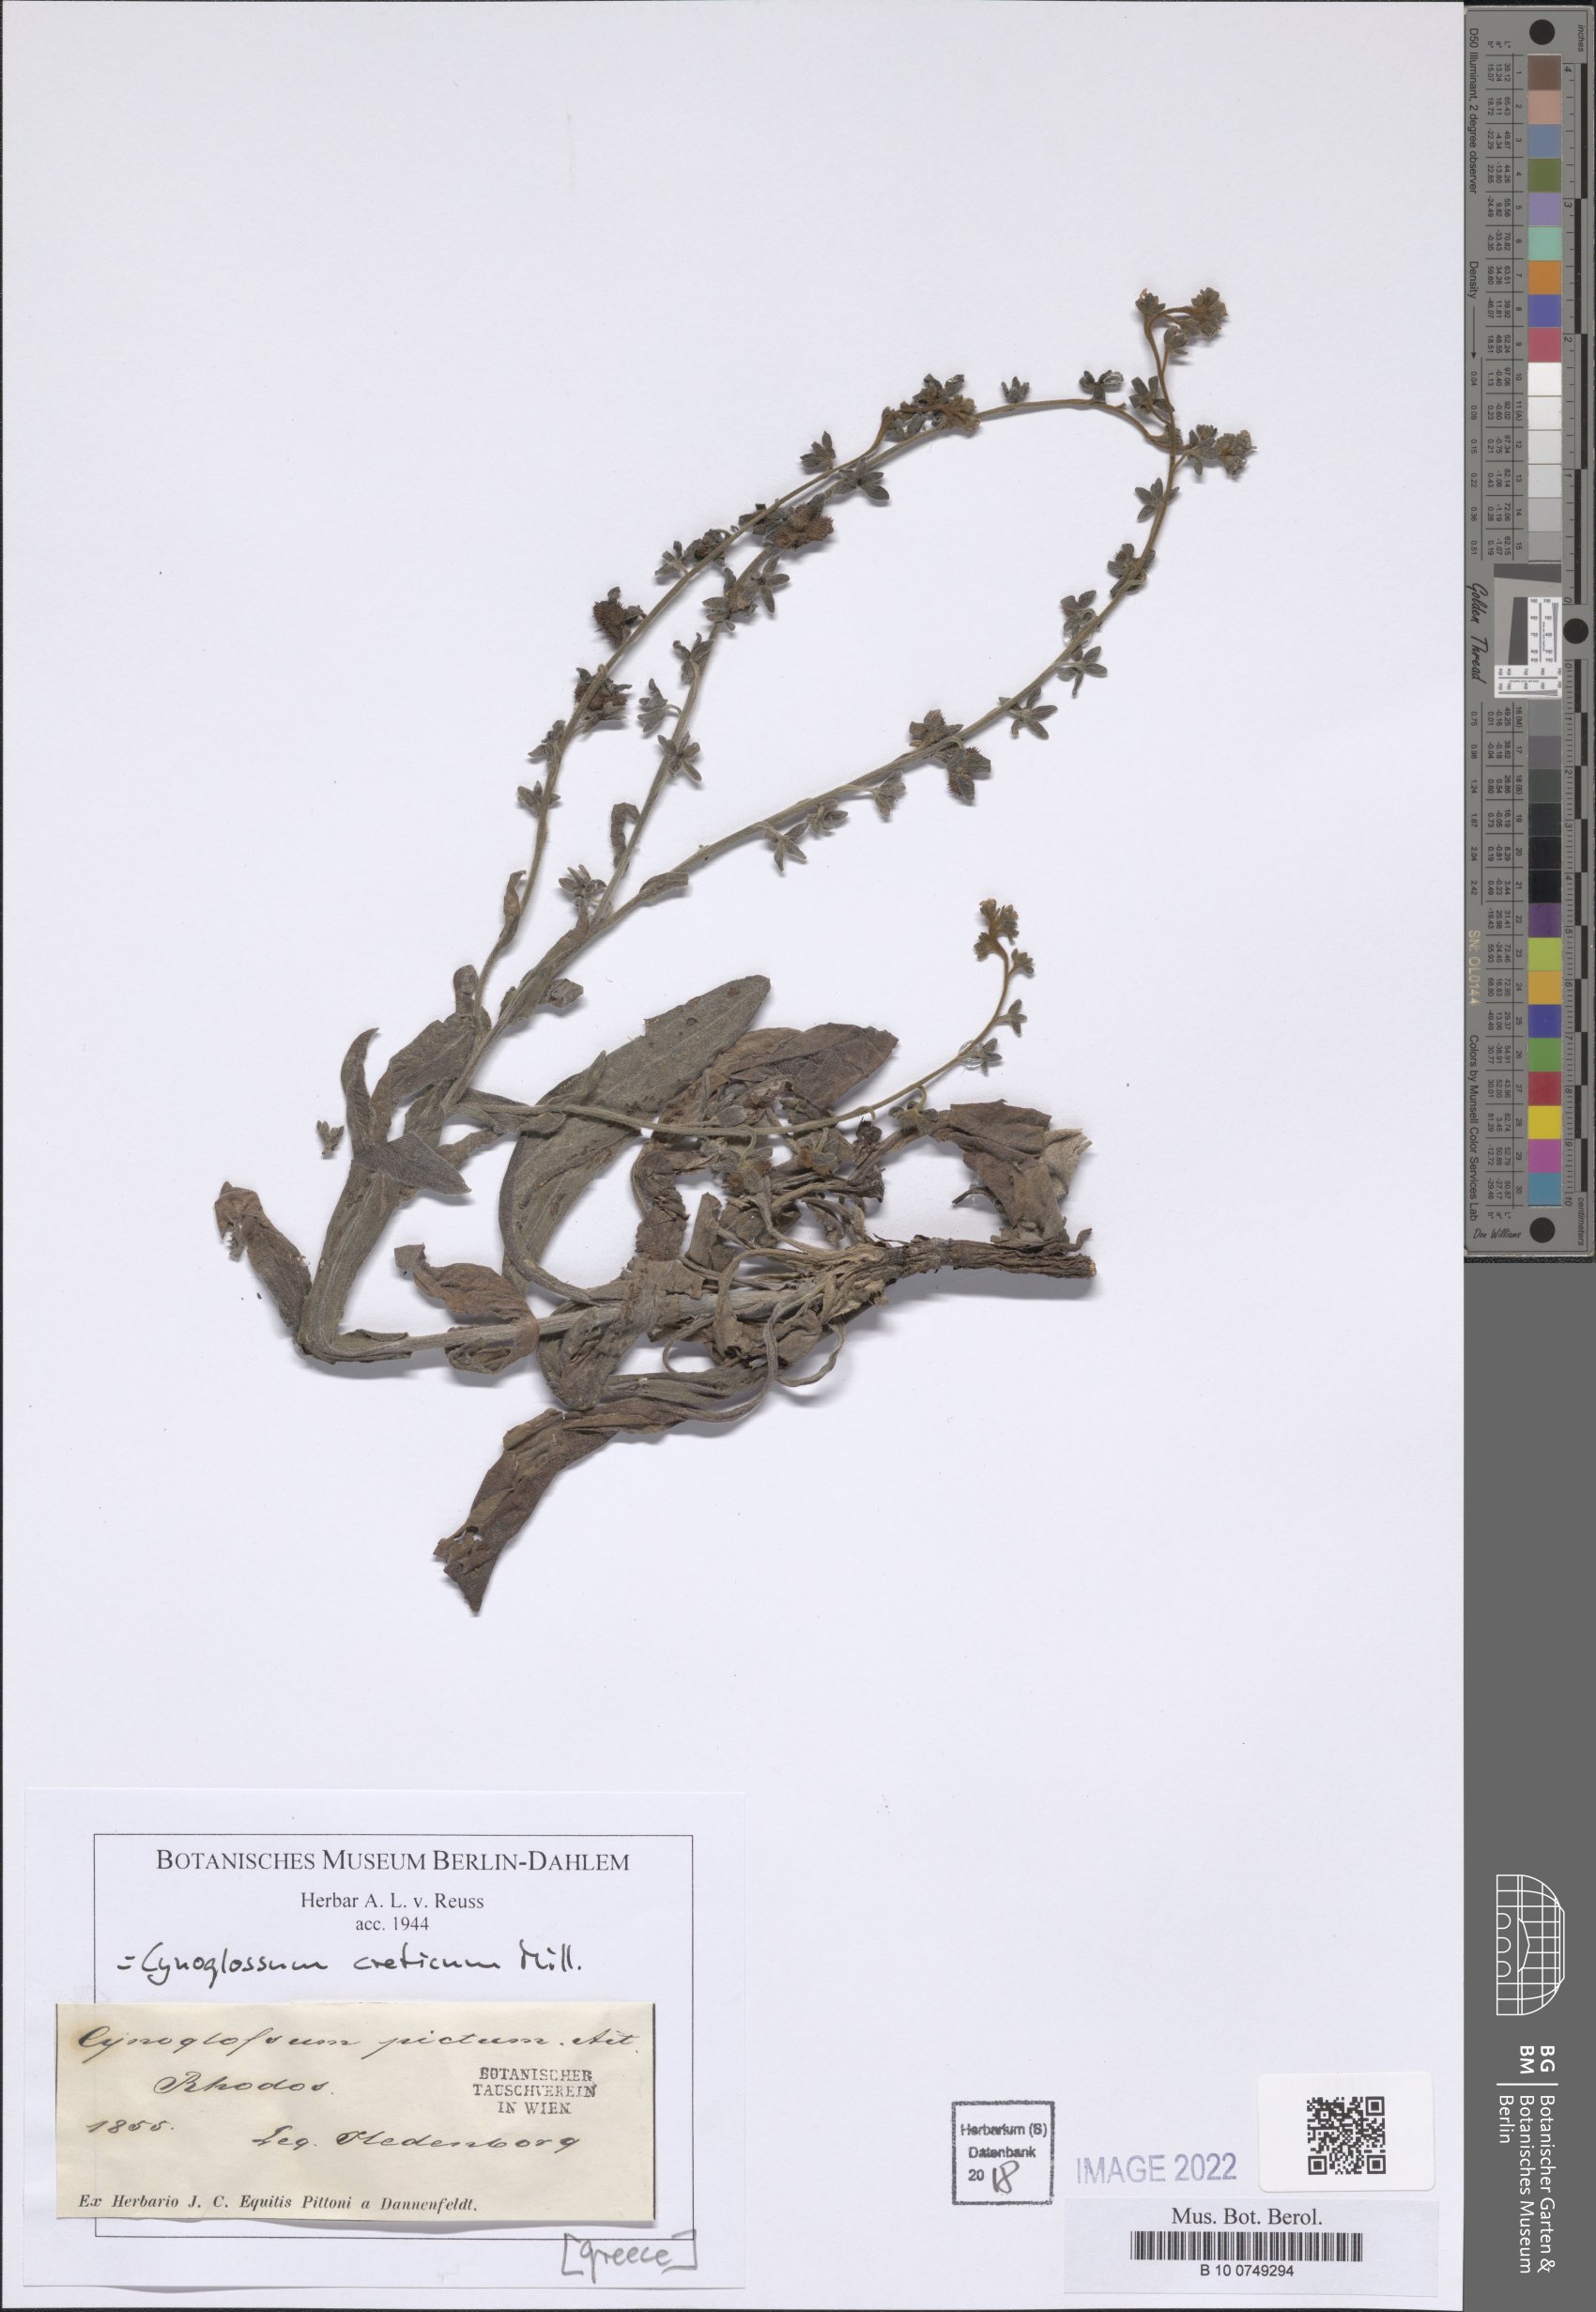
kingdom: Plantae
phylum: Tracheophyta
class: Magnoliopsida
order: Boraginales
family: Boraginaceae
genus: Cynoglossum
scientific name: Cynoglossum creticum
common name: Blue hound's tongue
